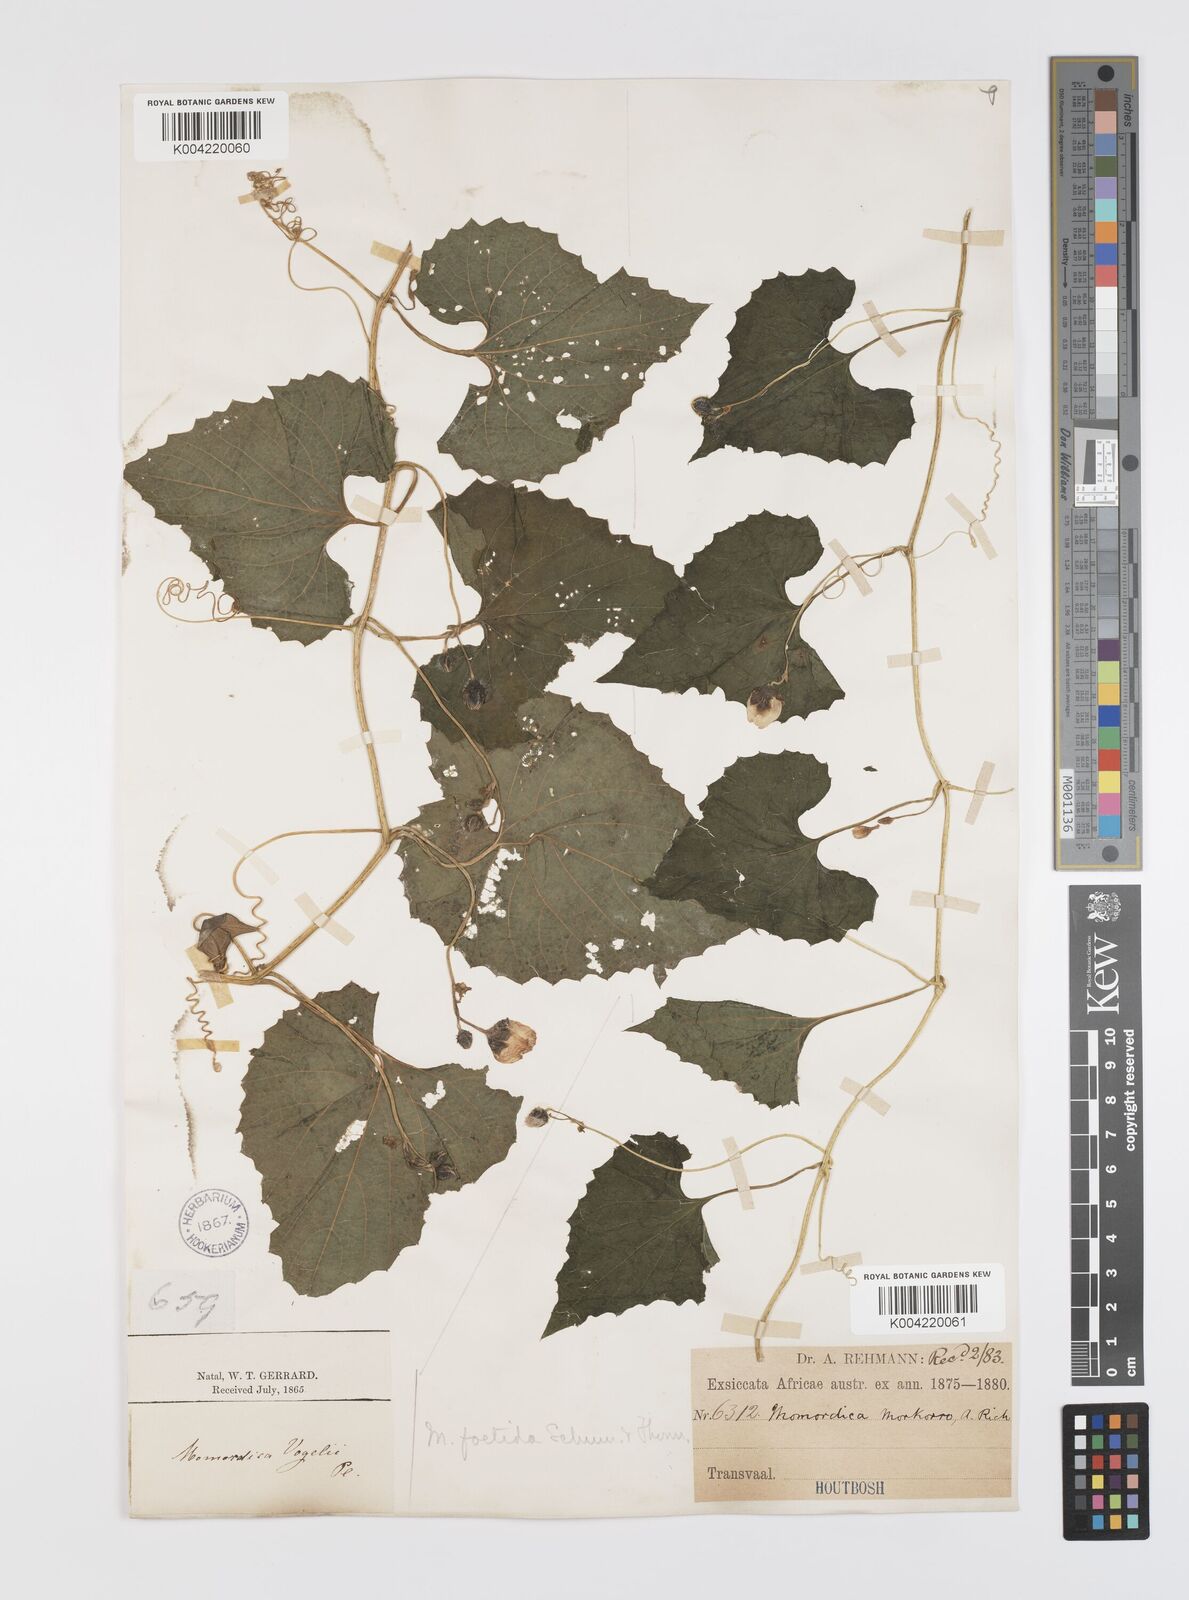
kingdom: Plantae
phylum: Tracheophyta
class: Magnoliopsida
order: Cucurbitales
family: Cucurbitaceae
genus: Momordica
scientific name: Momordica foetida
